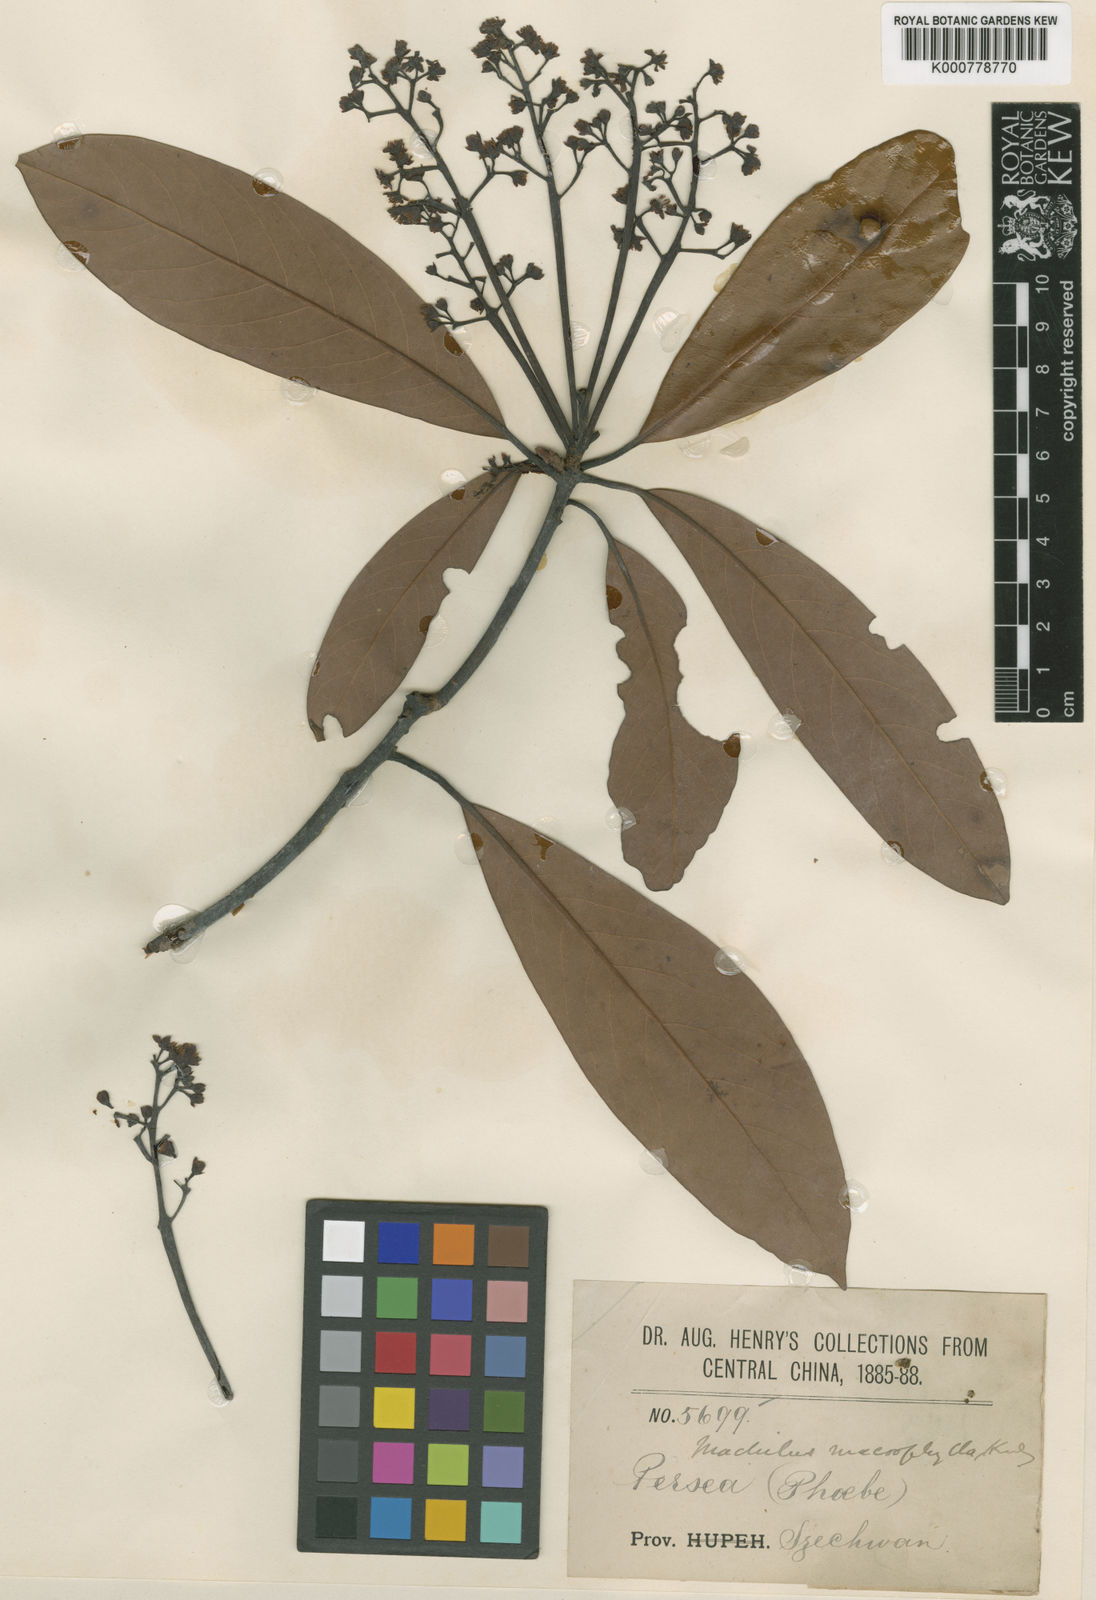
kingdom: Plantae
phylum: Tracheophyta
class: Magnoliopsida
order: Laurales
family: Lauraceae
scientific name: Lauraceae
